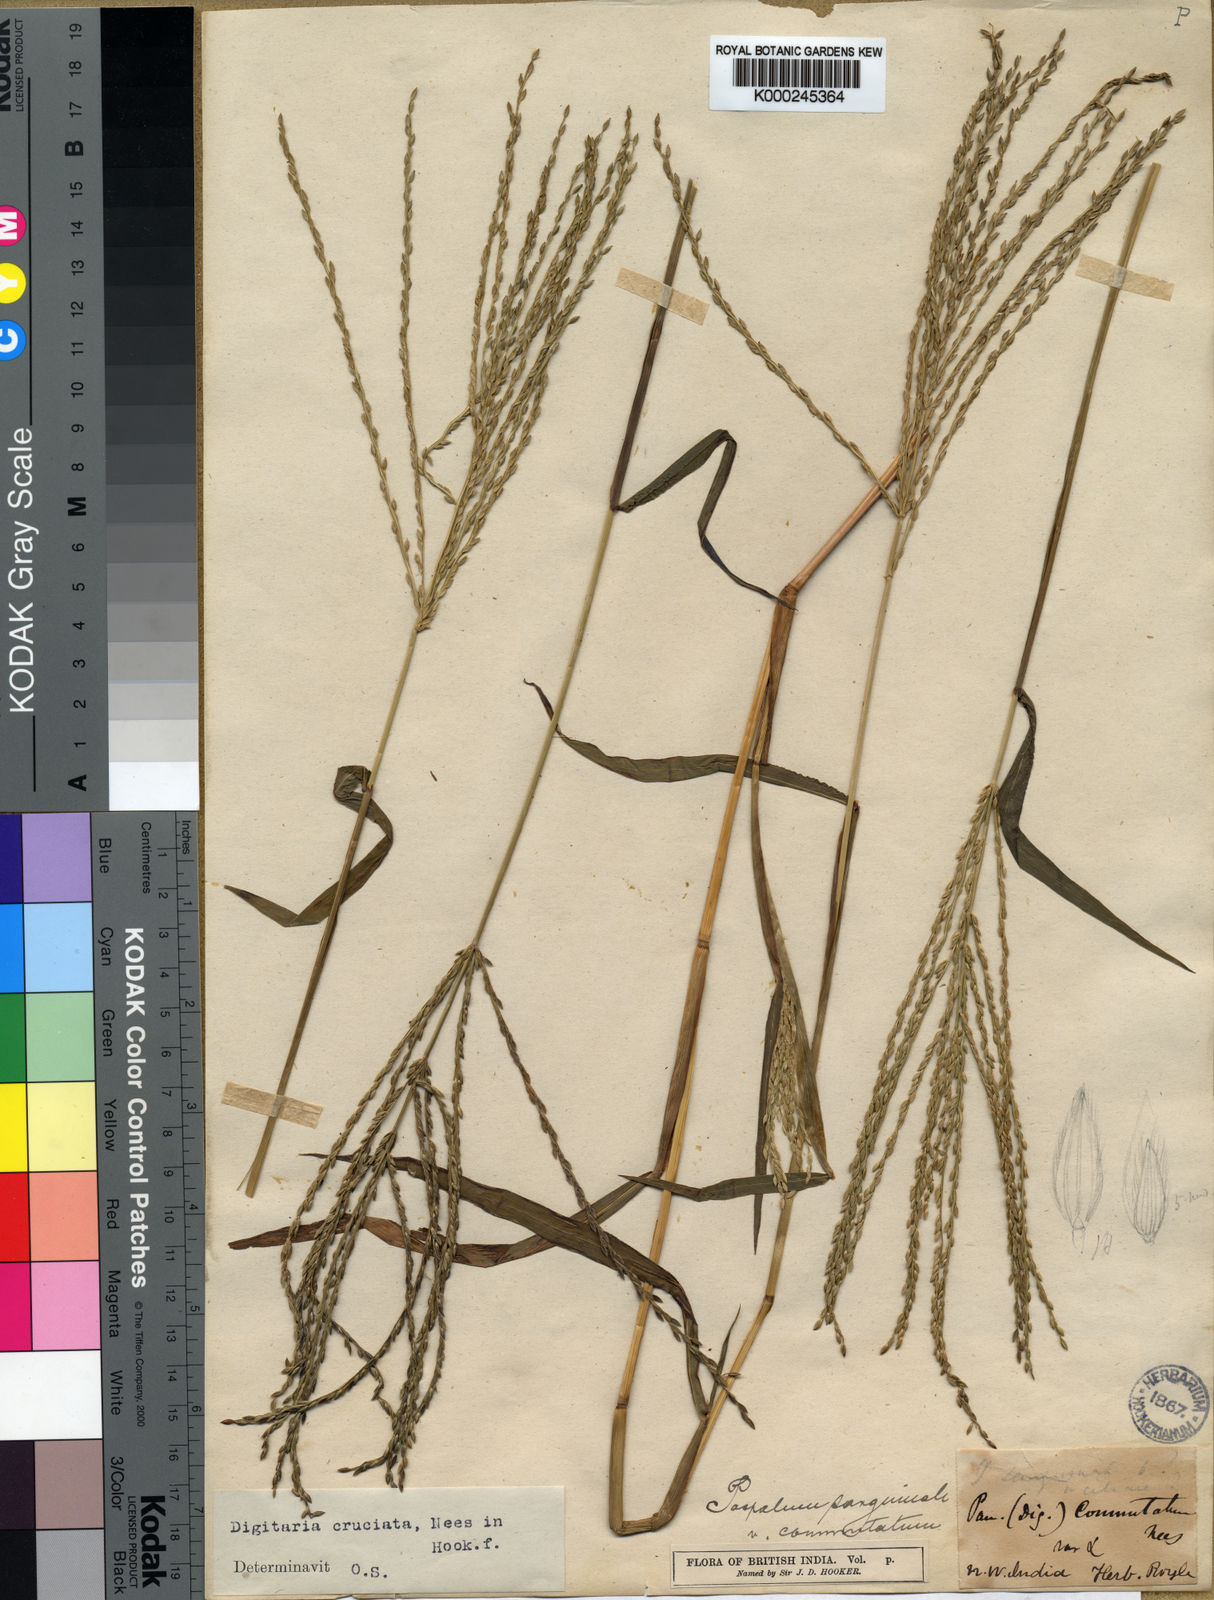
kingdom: Plantae
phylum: Tracheophyta
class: Liliopsida
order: Poales
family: Poaceae
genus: Digitaria
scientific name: Digitaria sanguinalis
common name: Hairy crabgrass
